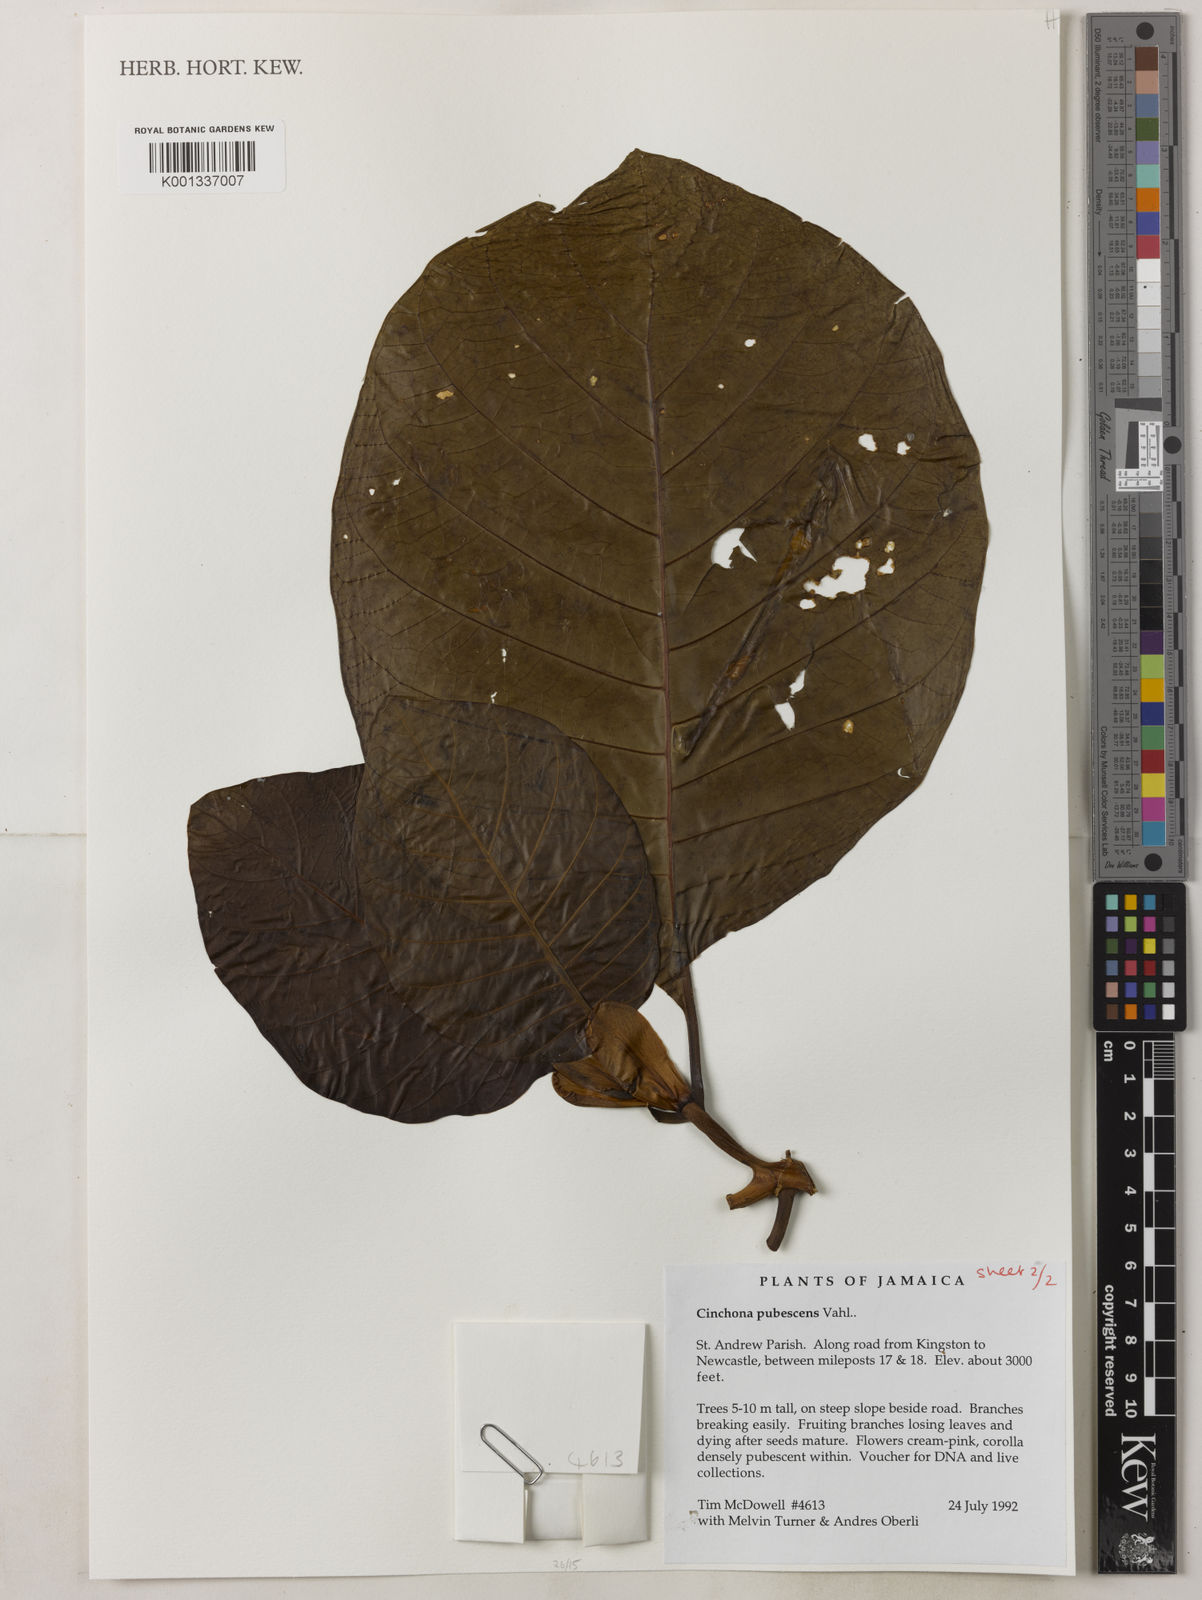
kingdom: Plantae
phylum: Tracheophyta
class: Magnoliopsida
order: Gentianales
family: Rubiaceae
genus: Cinchona
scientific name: Cinchona pubescens
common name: Quinine
